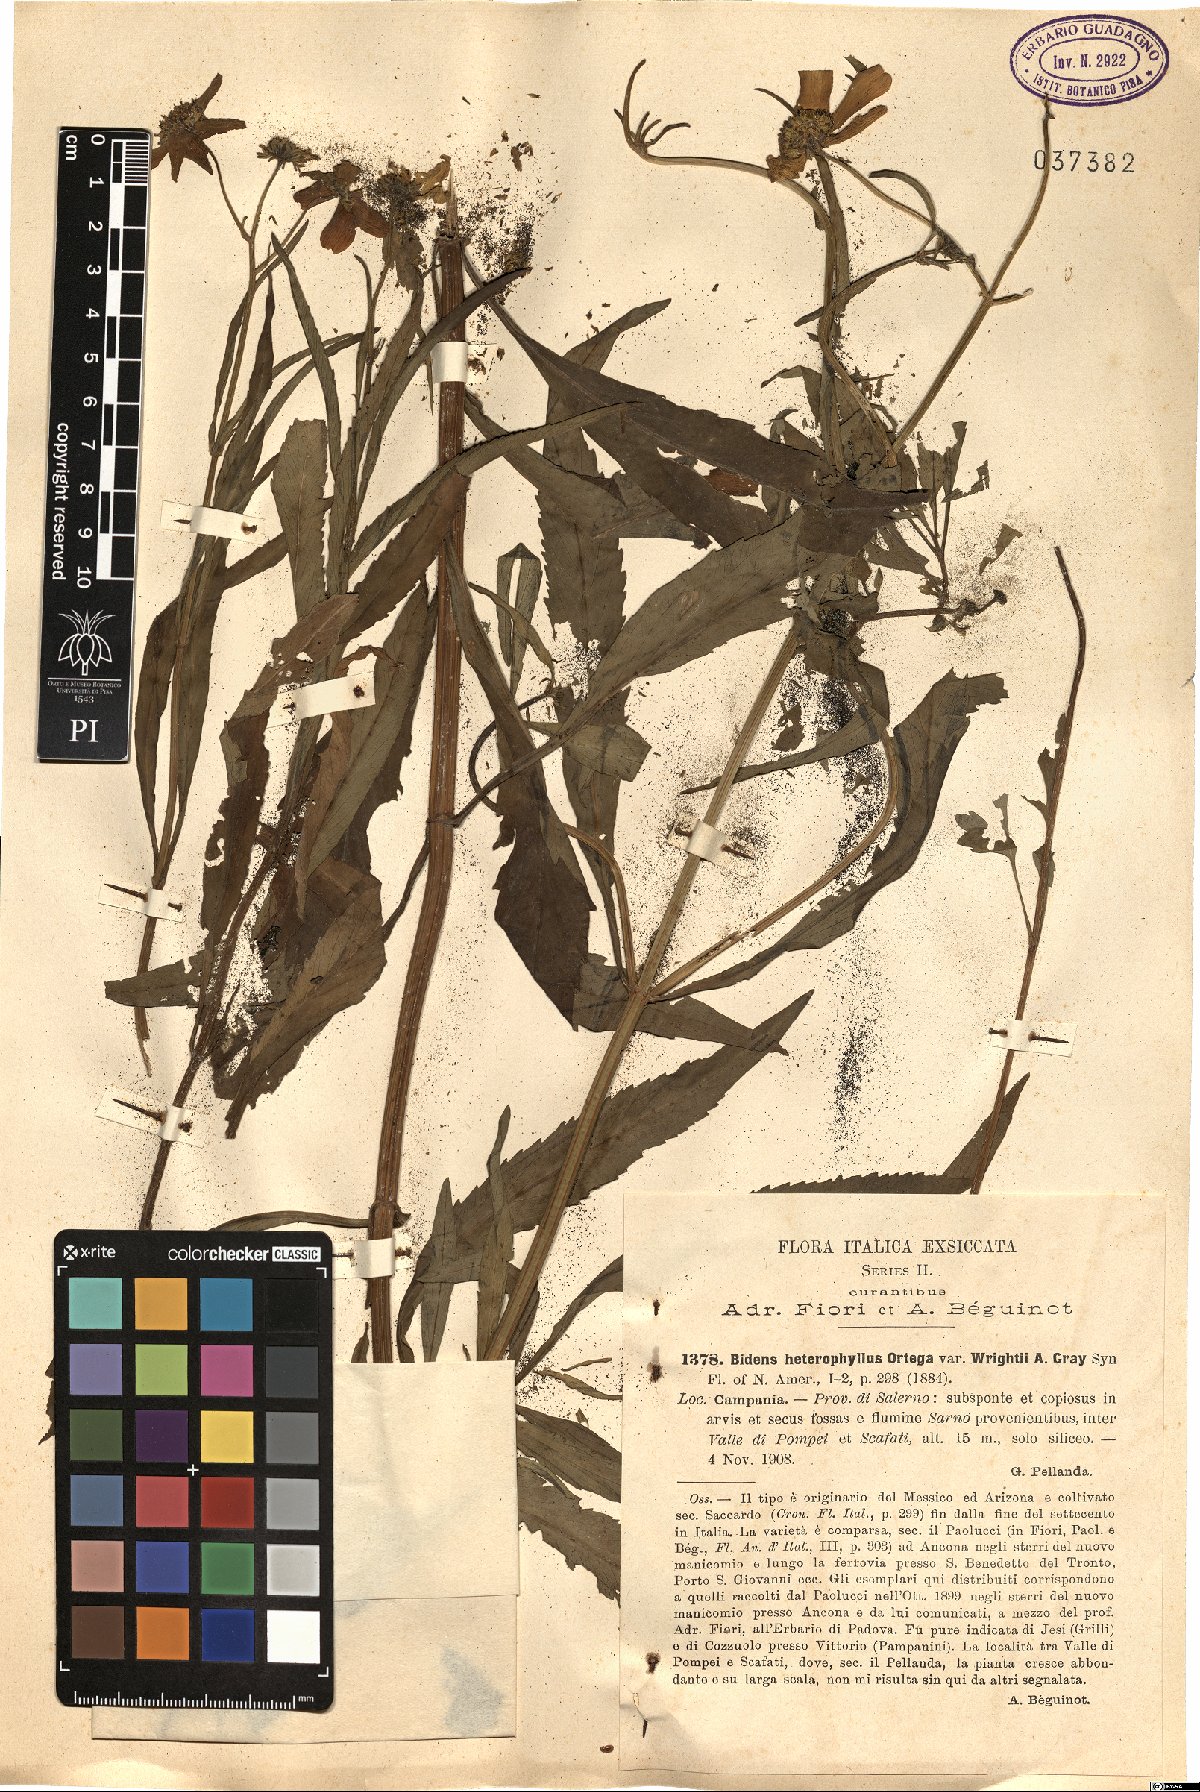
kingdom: Plantae
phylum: Tracheophyta
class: Magnoliopsida
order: Asterales
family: Asteraceae
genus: Bidens
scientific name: Bidens schaffneri
